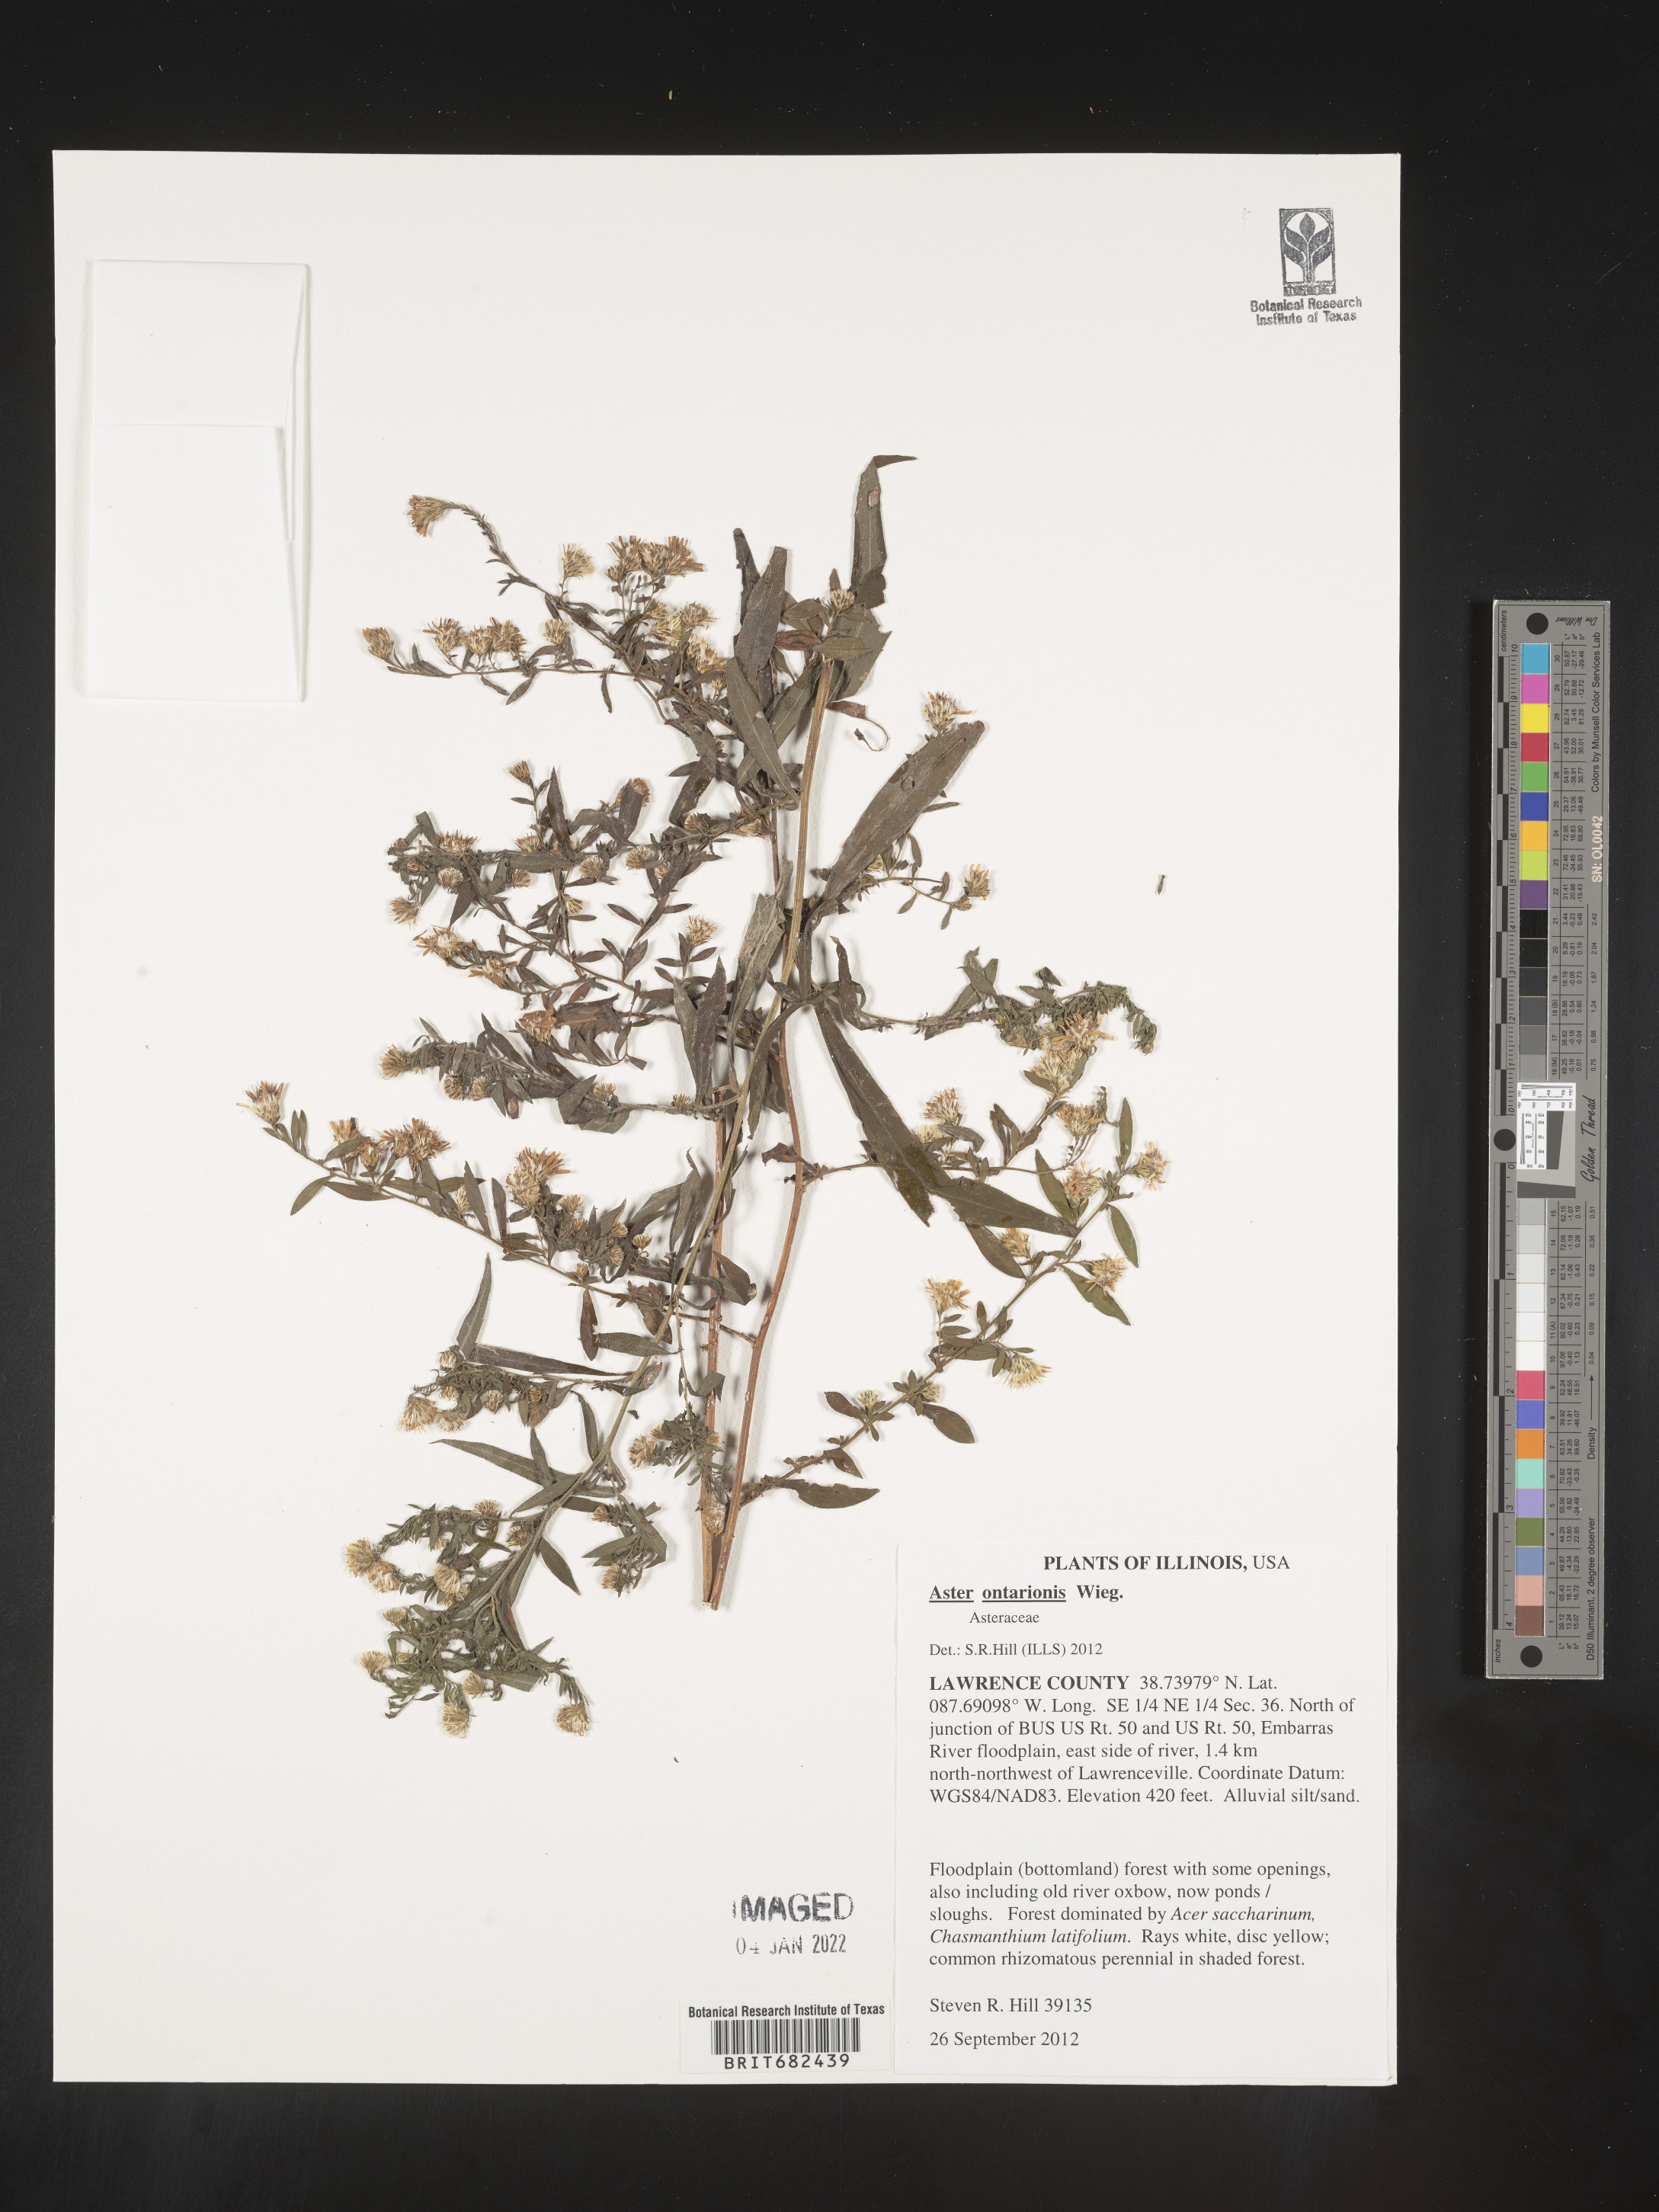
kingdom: Plantae
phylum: Tracheophyta
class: Magnoliopsida
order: Asterales
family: Asteraceae
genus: Aster
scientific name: Aster
